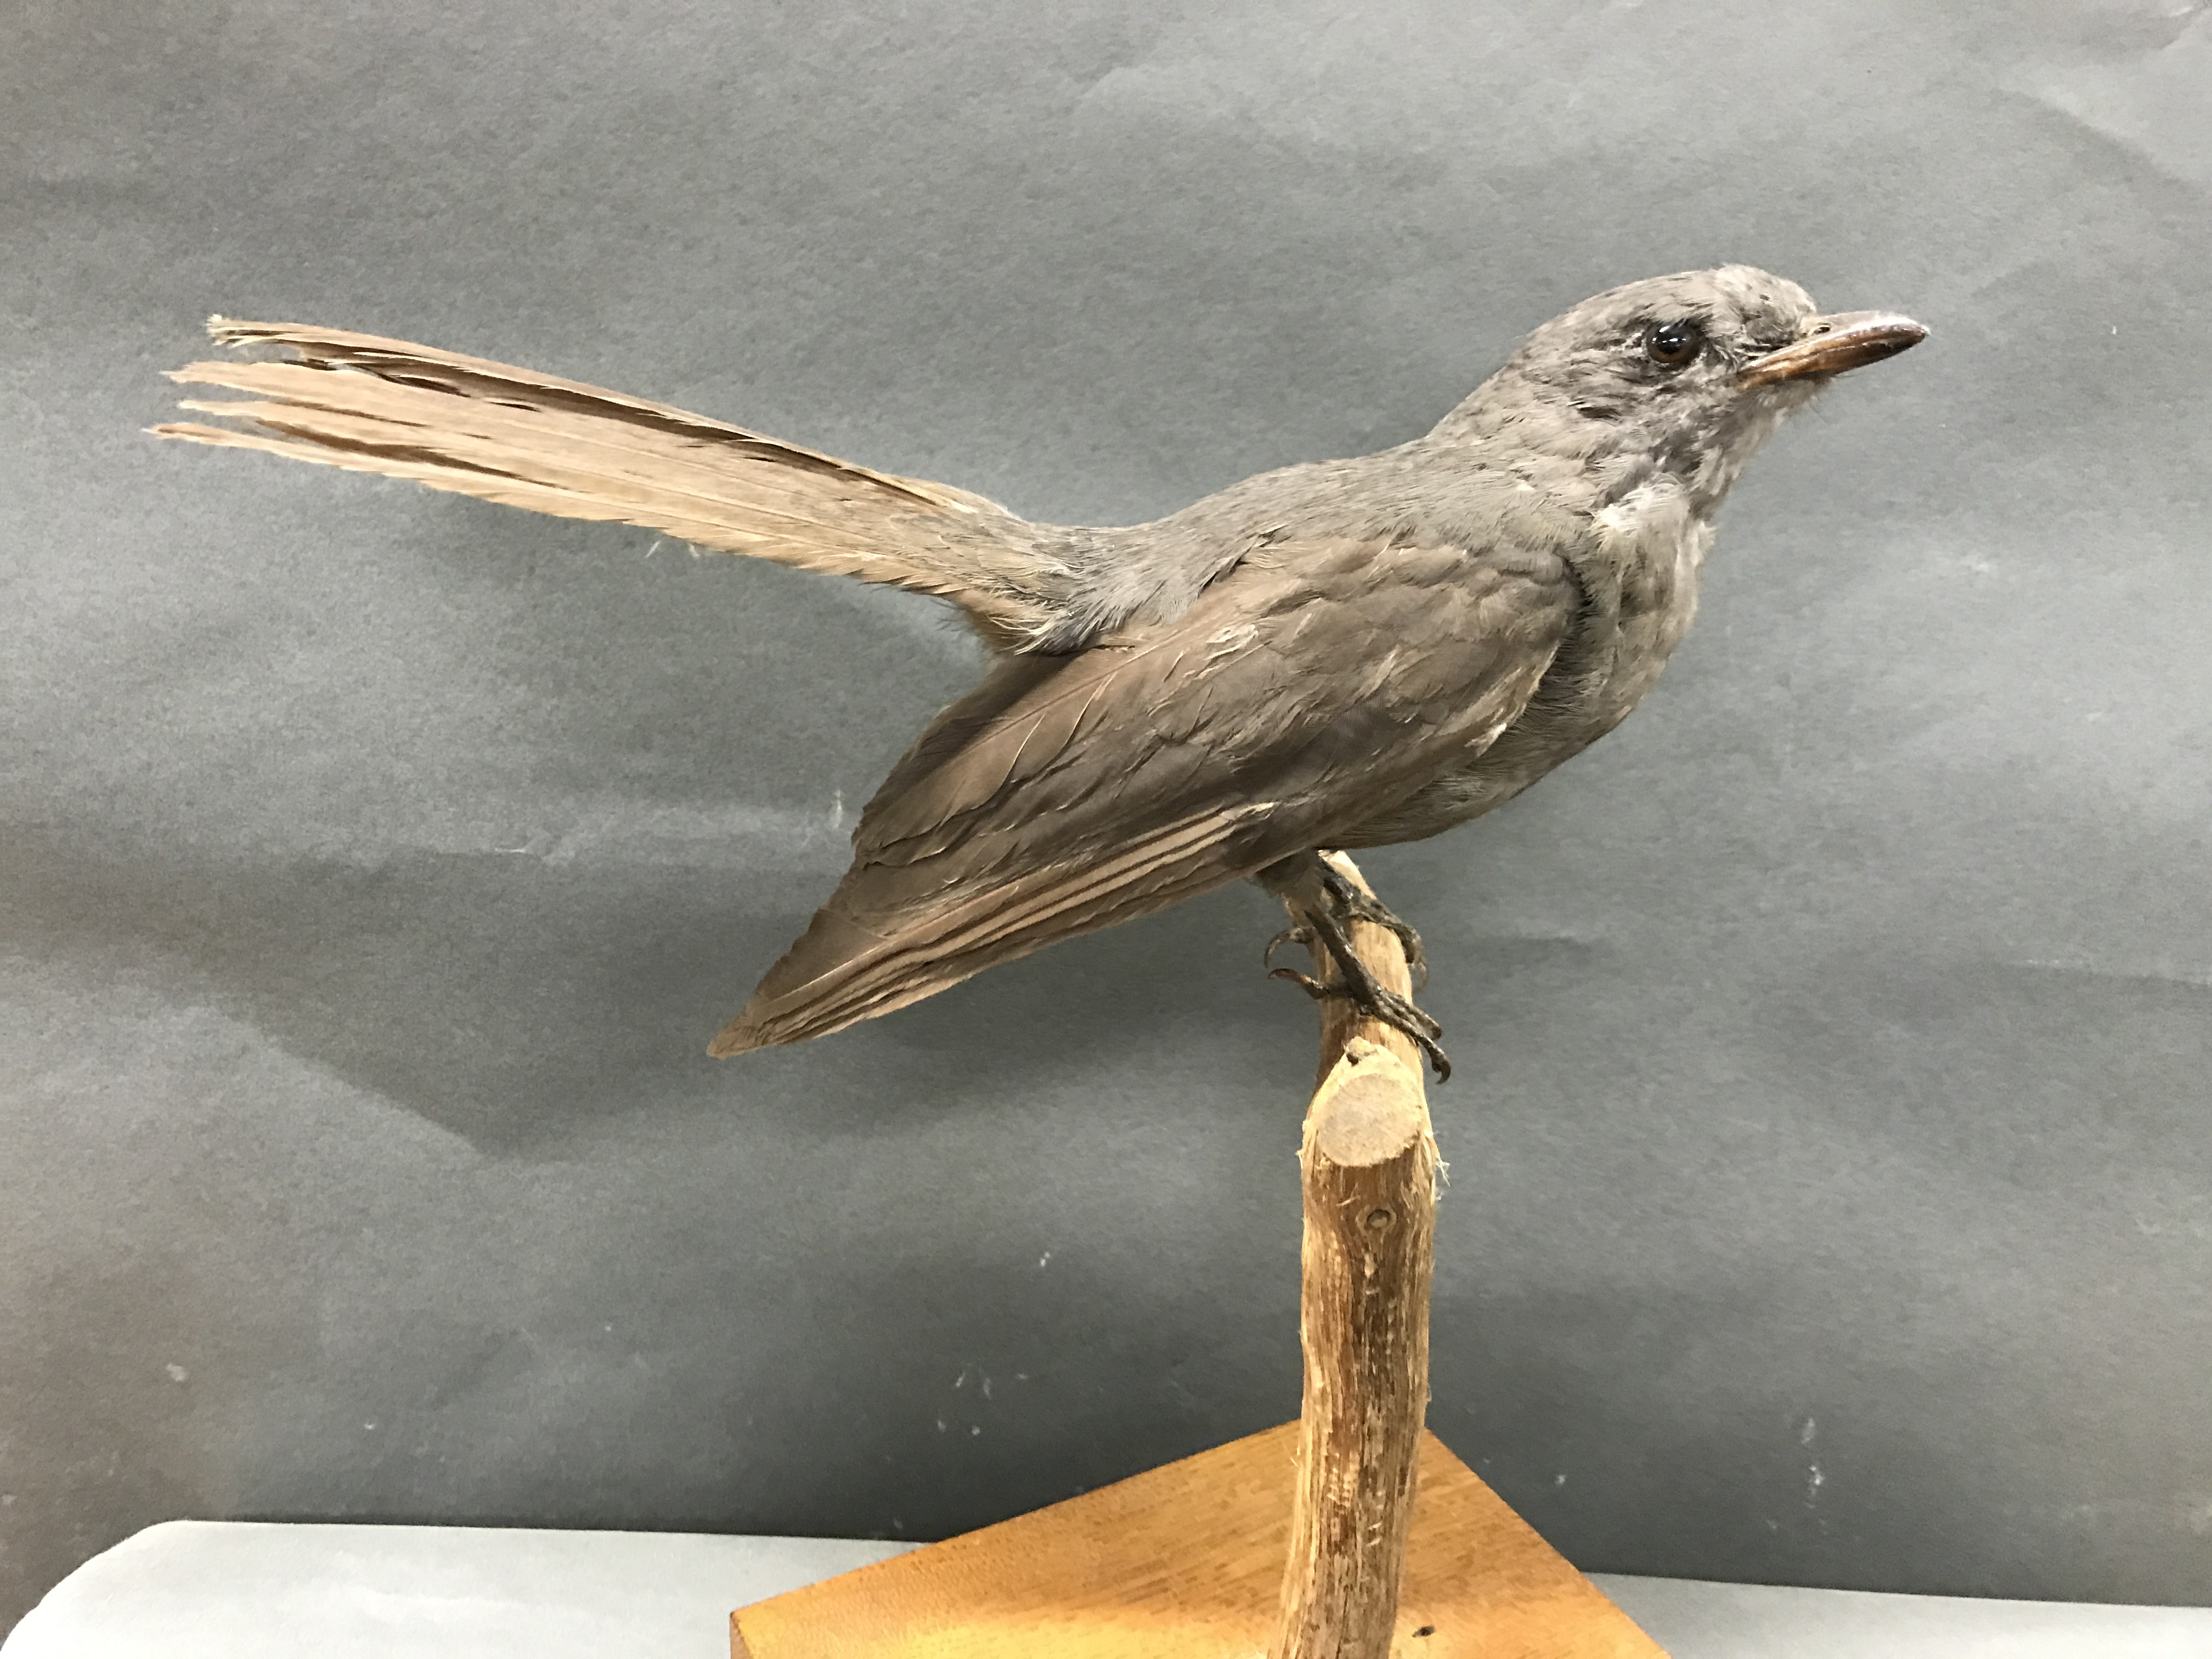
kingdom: Animalia
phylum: Chordata
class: Aves
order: Passeriformes
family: Cotingidae
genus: Lipaugus
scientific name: Lipaugus fuscocinereus
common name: Dusky piha
